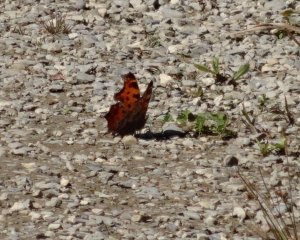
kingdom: Animalia
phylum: Arthropoda
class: Insecta
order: Lepidoptera
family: Nymphalidae
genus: Polygonia
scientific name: Polygonia comma
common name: Eastern Comma
